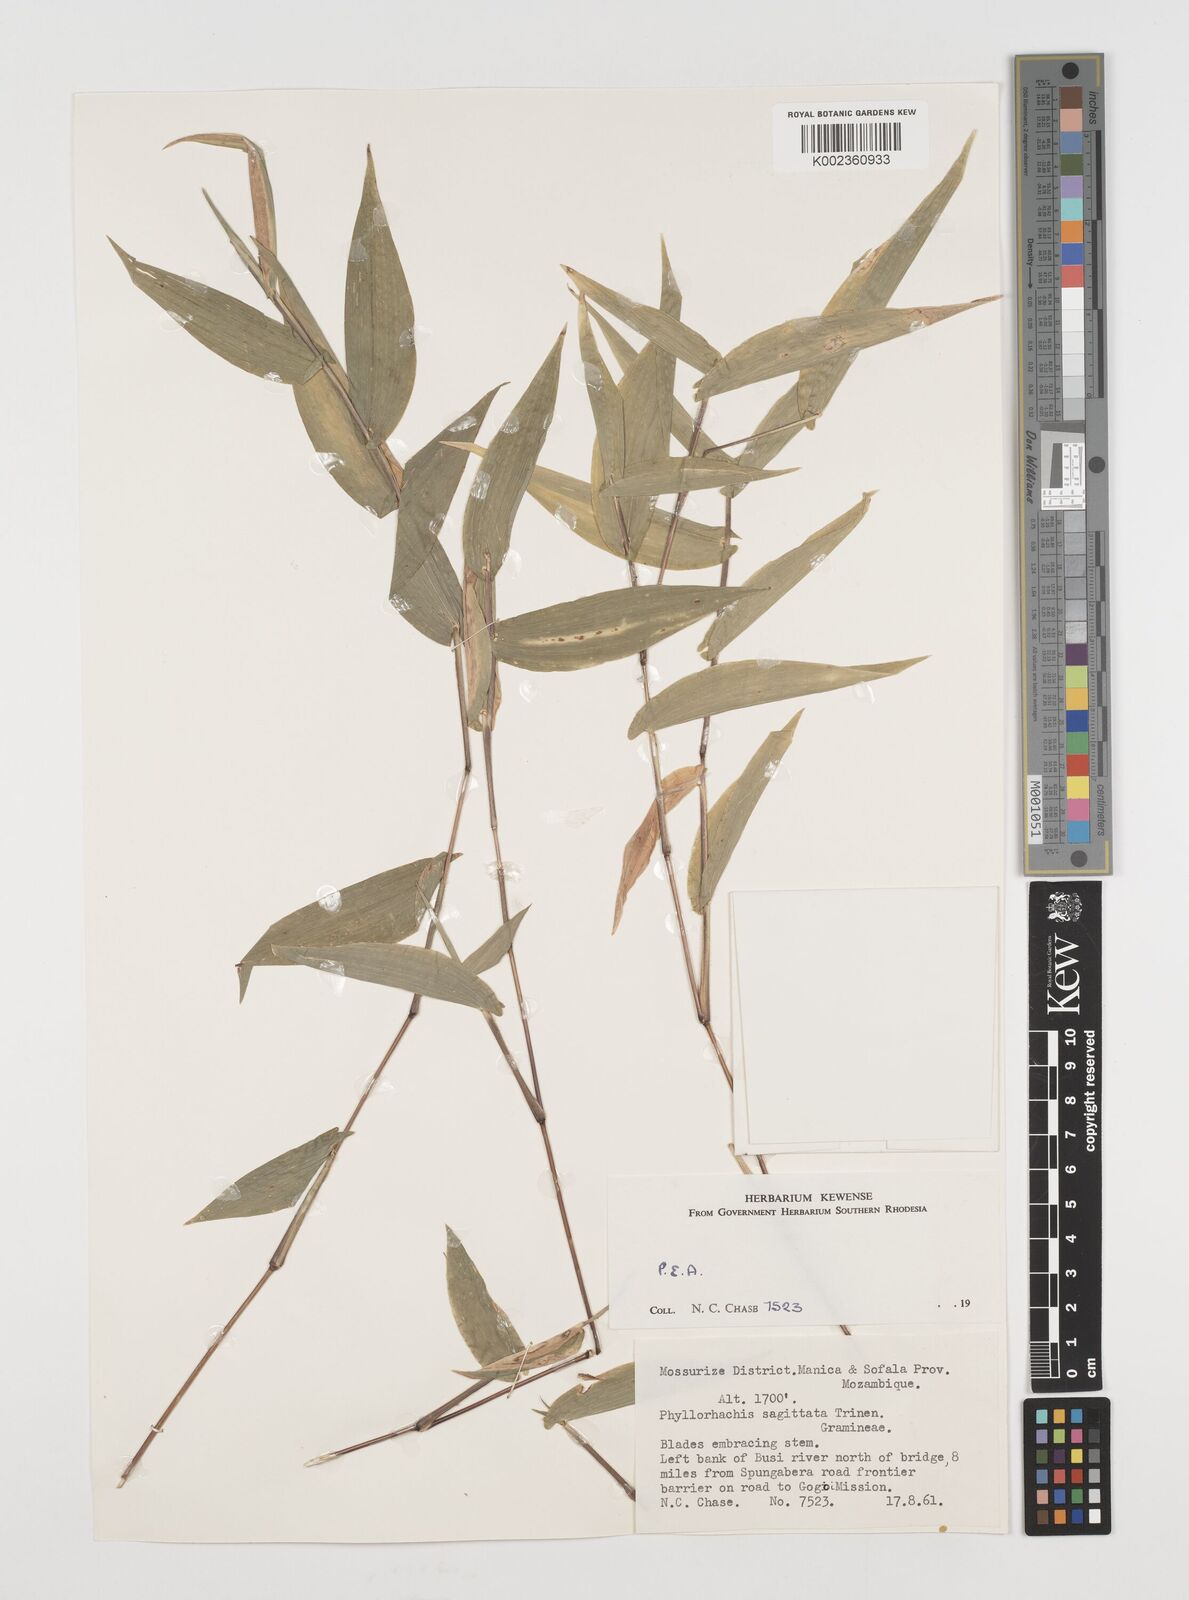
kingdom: Plantae
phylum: Tracheophyta
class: Liliopsida
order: Poales
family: Poaceae
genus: Phyllorachis
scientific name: Phyllorachis sagittata
